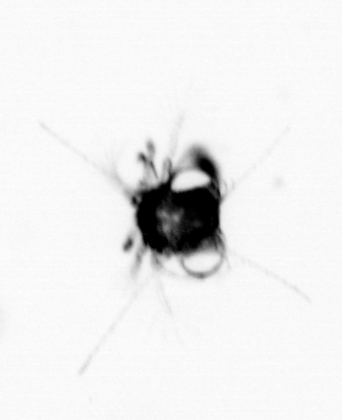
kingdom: Animalia
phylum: Arthropoda
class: Malacostraca
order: Decapoda
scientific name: Decapoda
